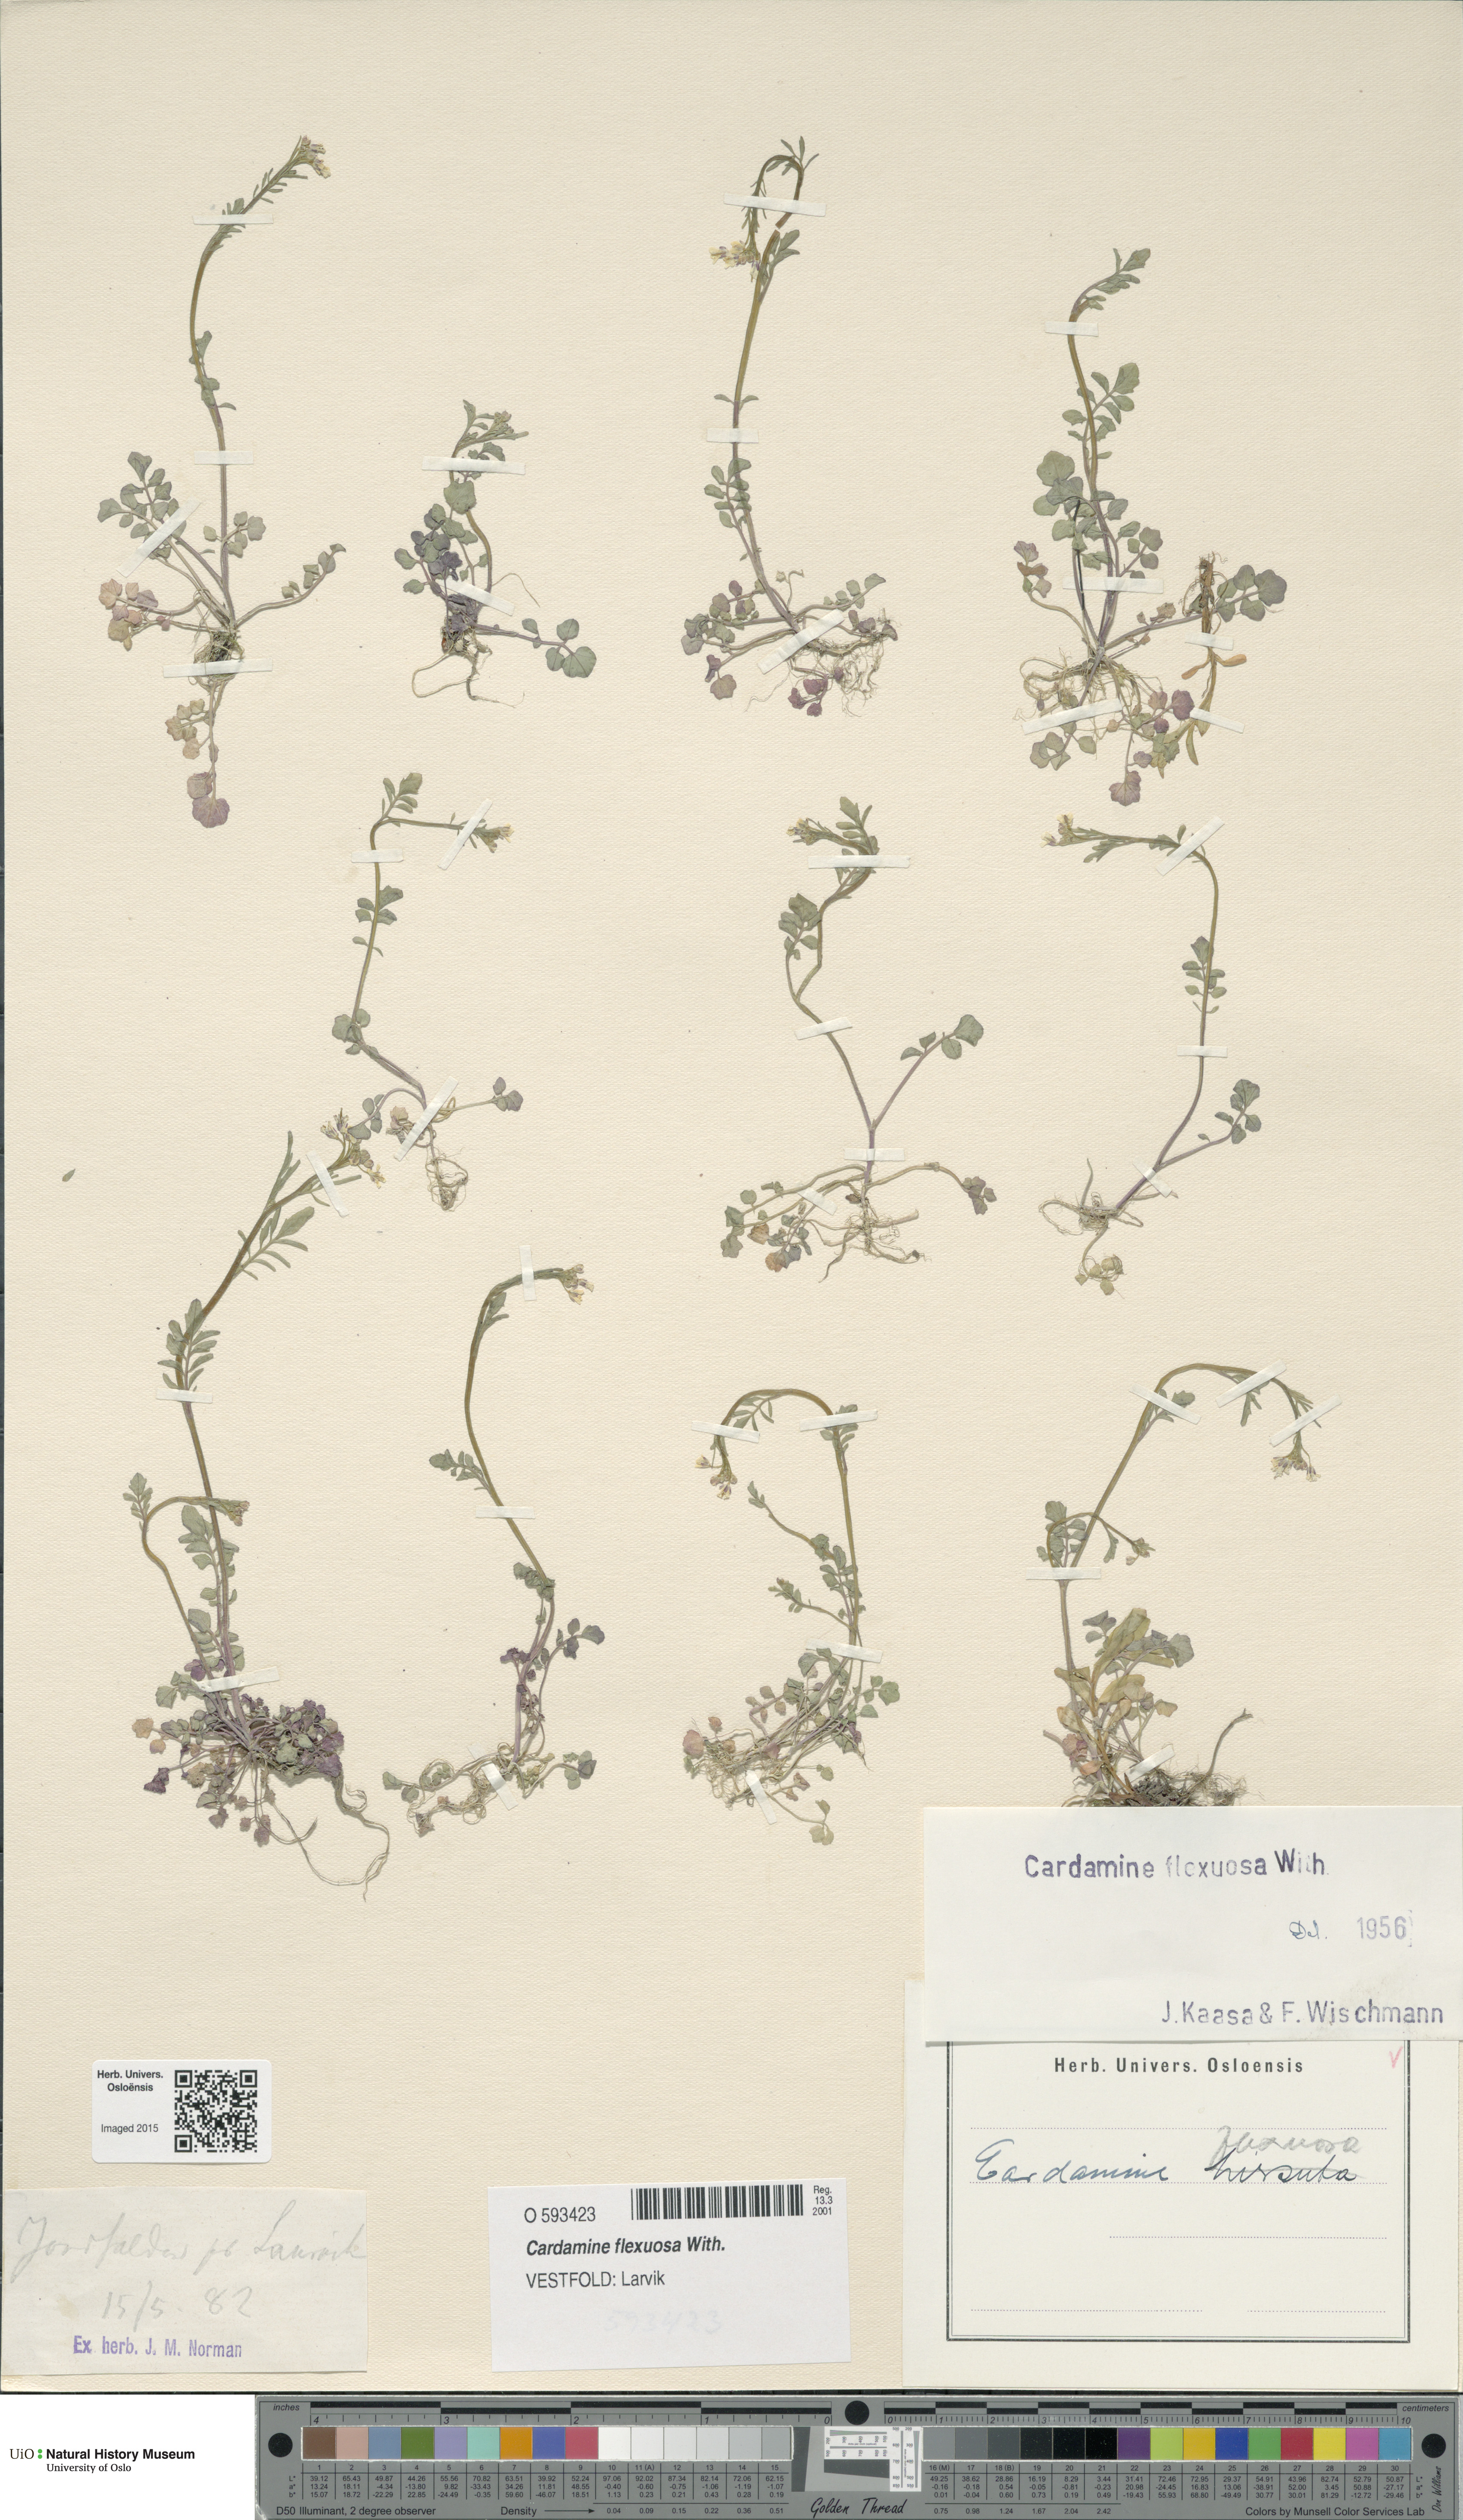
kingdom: Plantae
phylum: Tracheophyta
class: Magnoliopsida
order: Brassicales
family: Brassicaceae
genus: Cardamine
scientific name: Cardamine flexuosa
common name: Woodland bittercress
